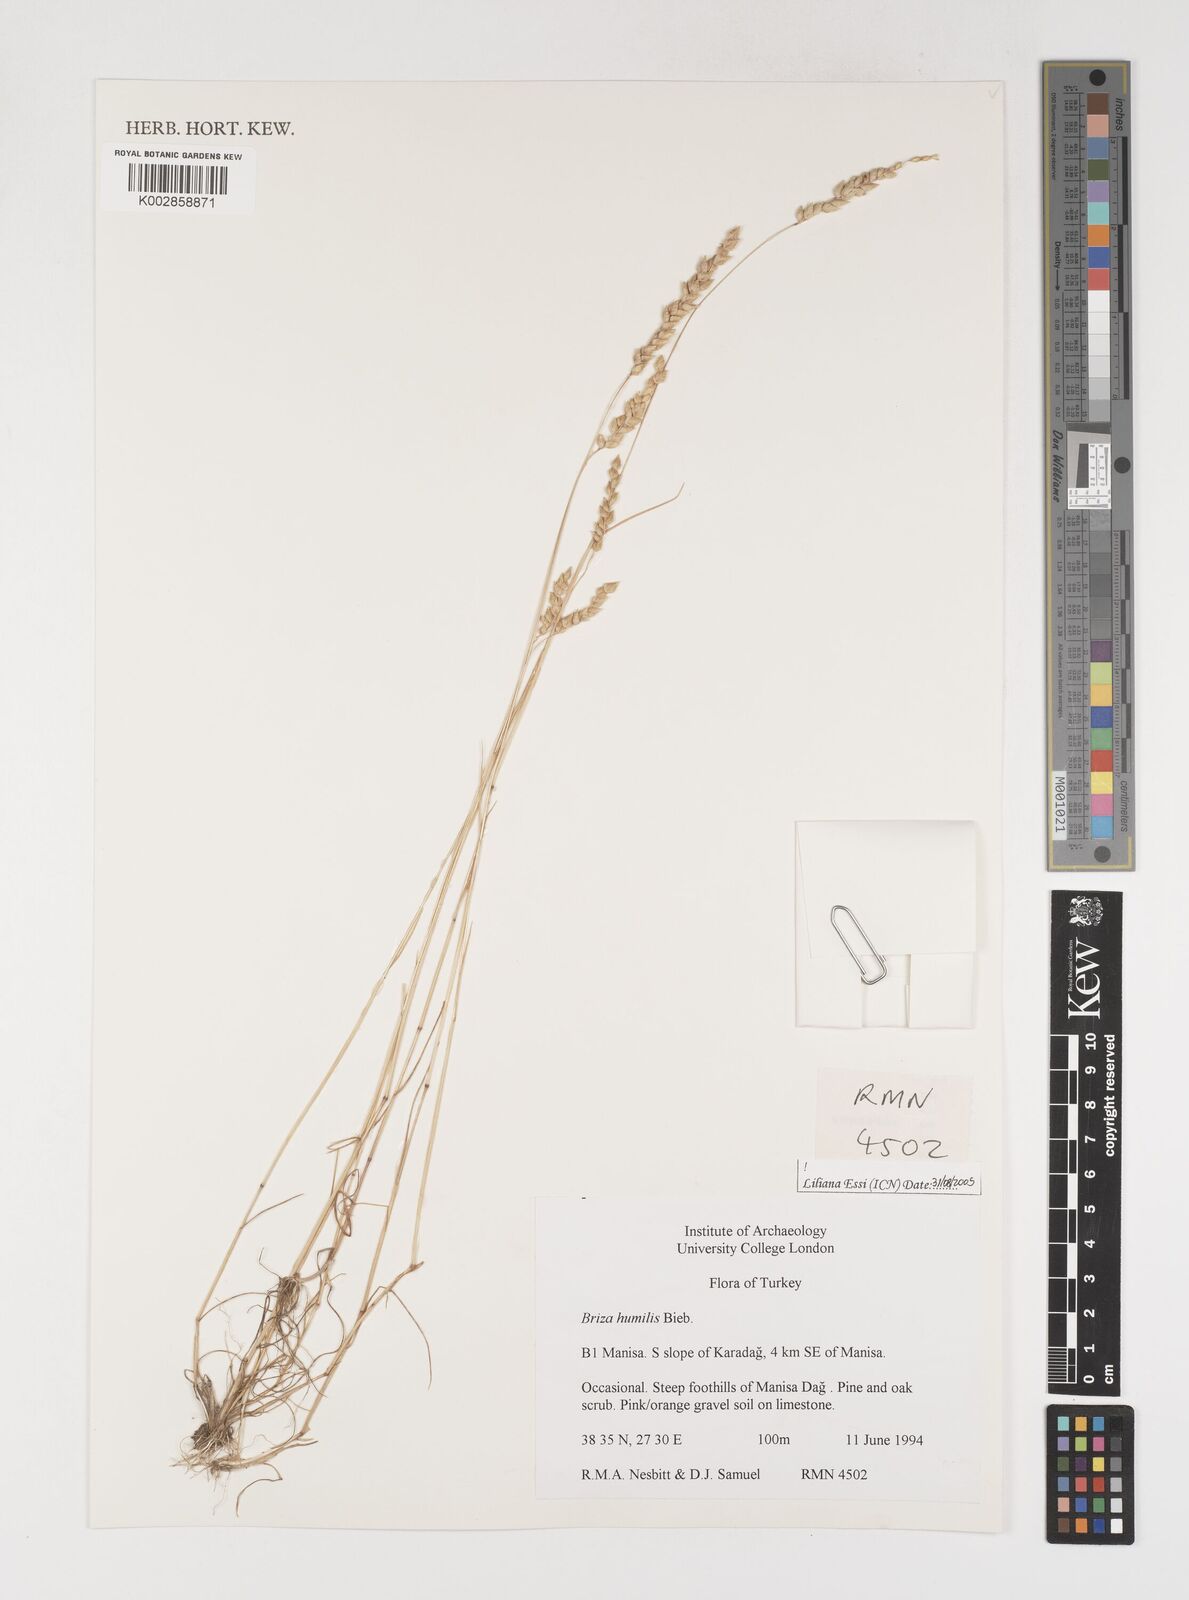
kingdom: Plantae
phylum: Tracheophyta
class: Liliopsida
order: Poales
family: Poaceae
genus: Briza
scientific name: Briza humilis
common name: Spiked quaking grass
